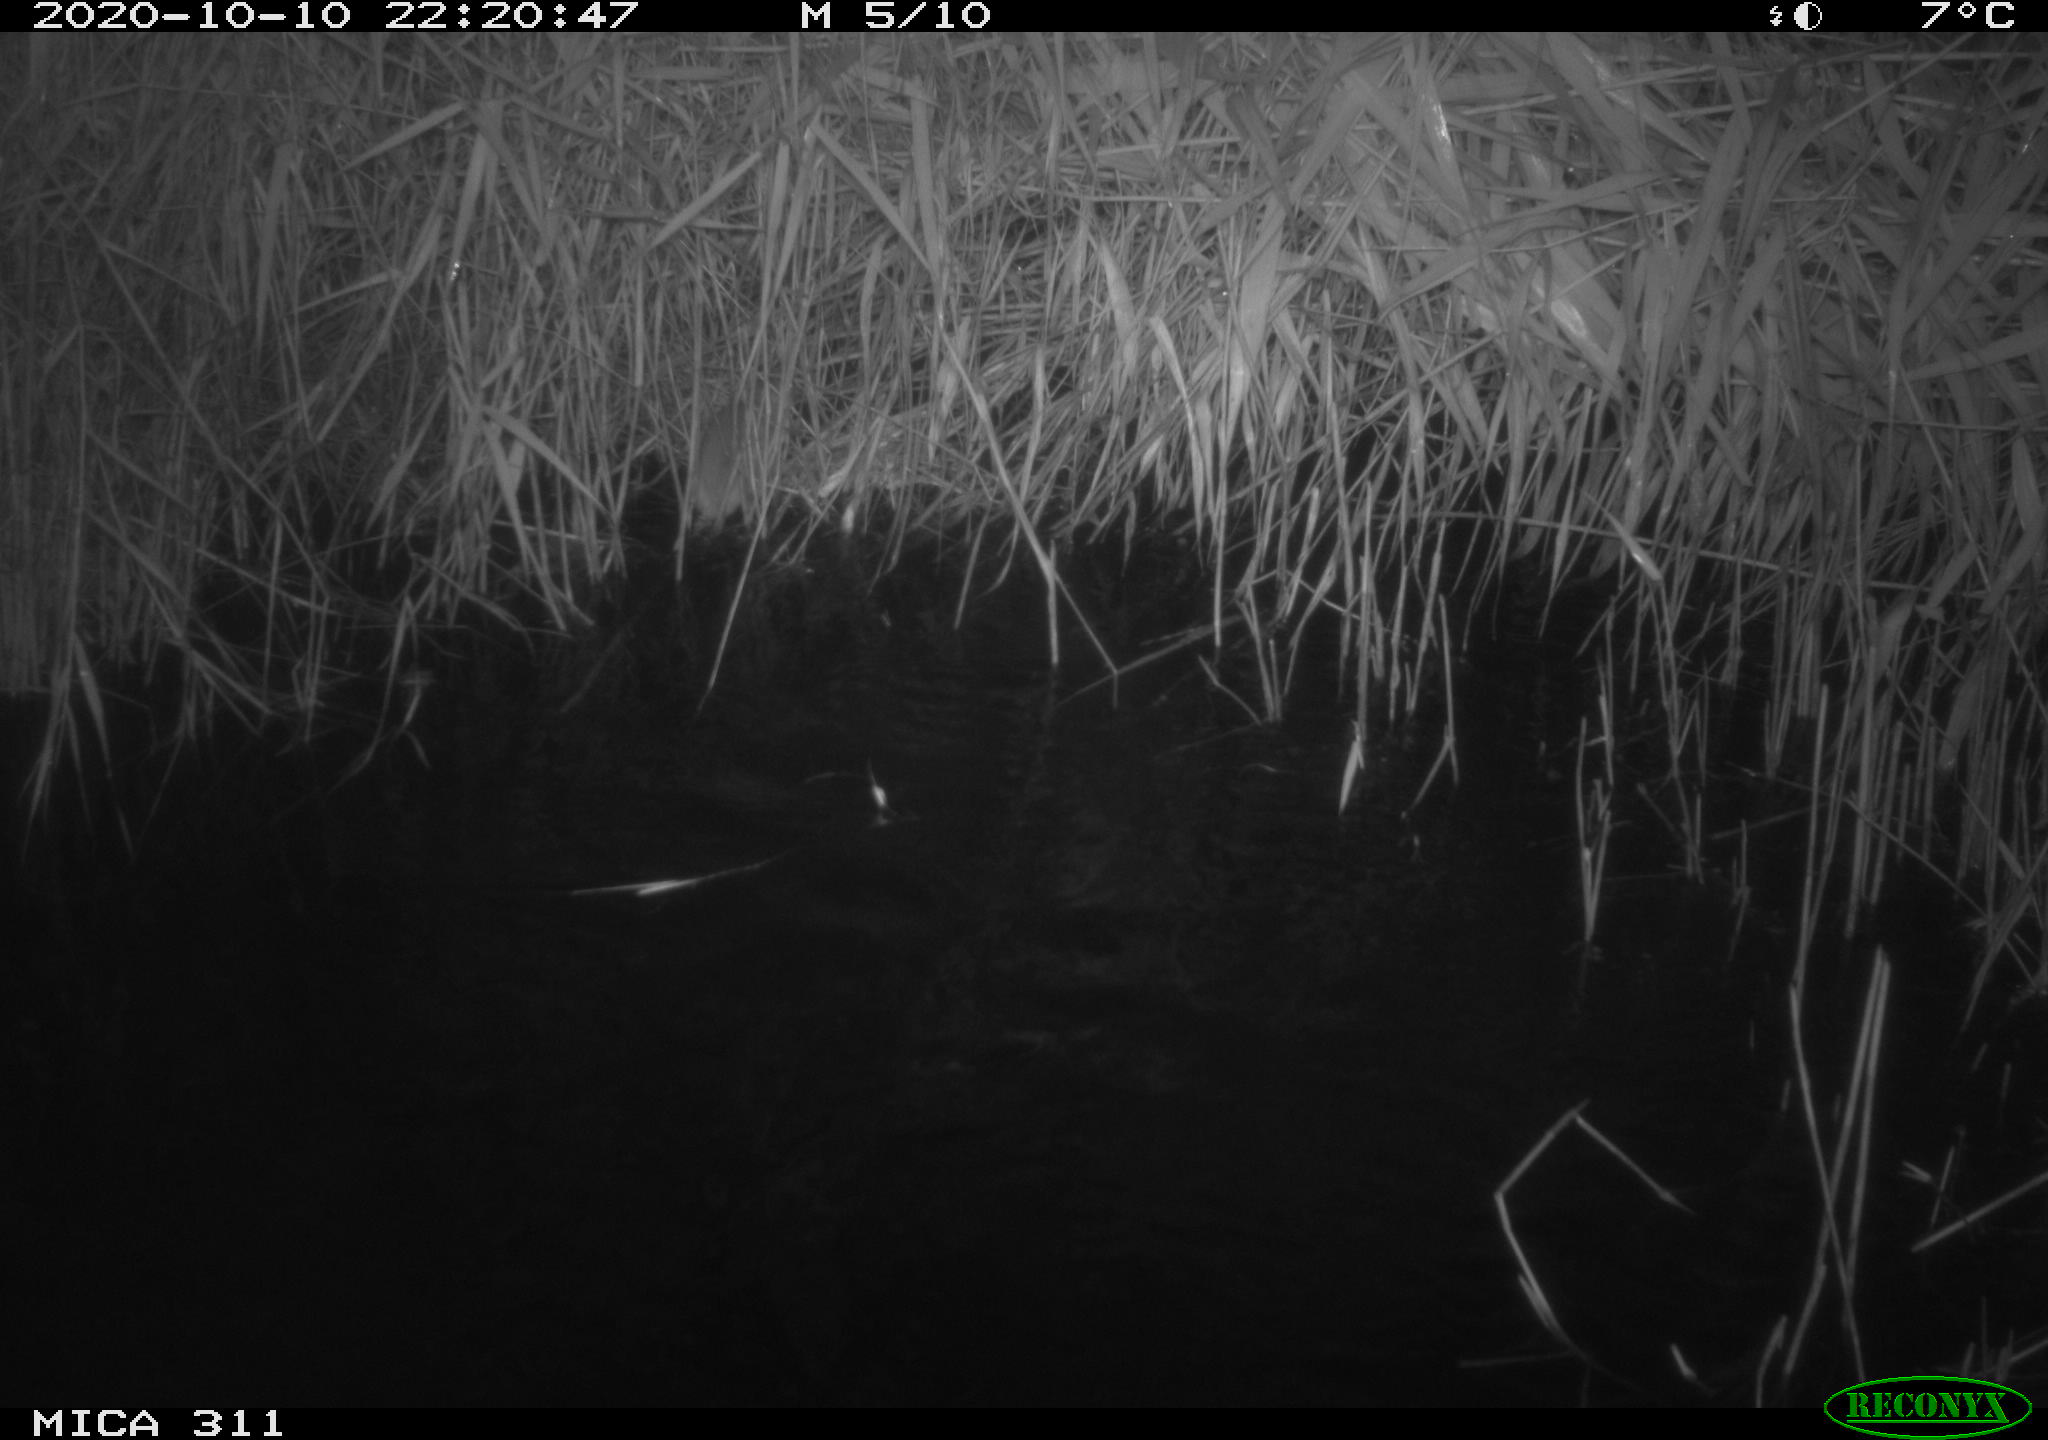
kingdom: Animalia
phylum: Chordata
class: Mammalia
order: Rodentia
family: Muridae
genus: Rattus
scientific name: Rattus norvegicus
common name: Brown rat
